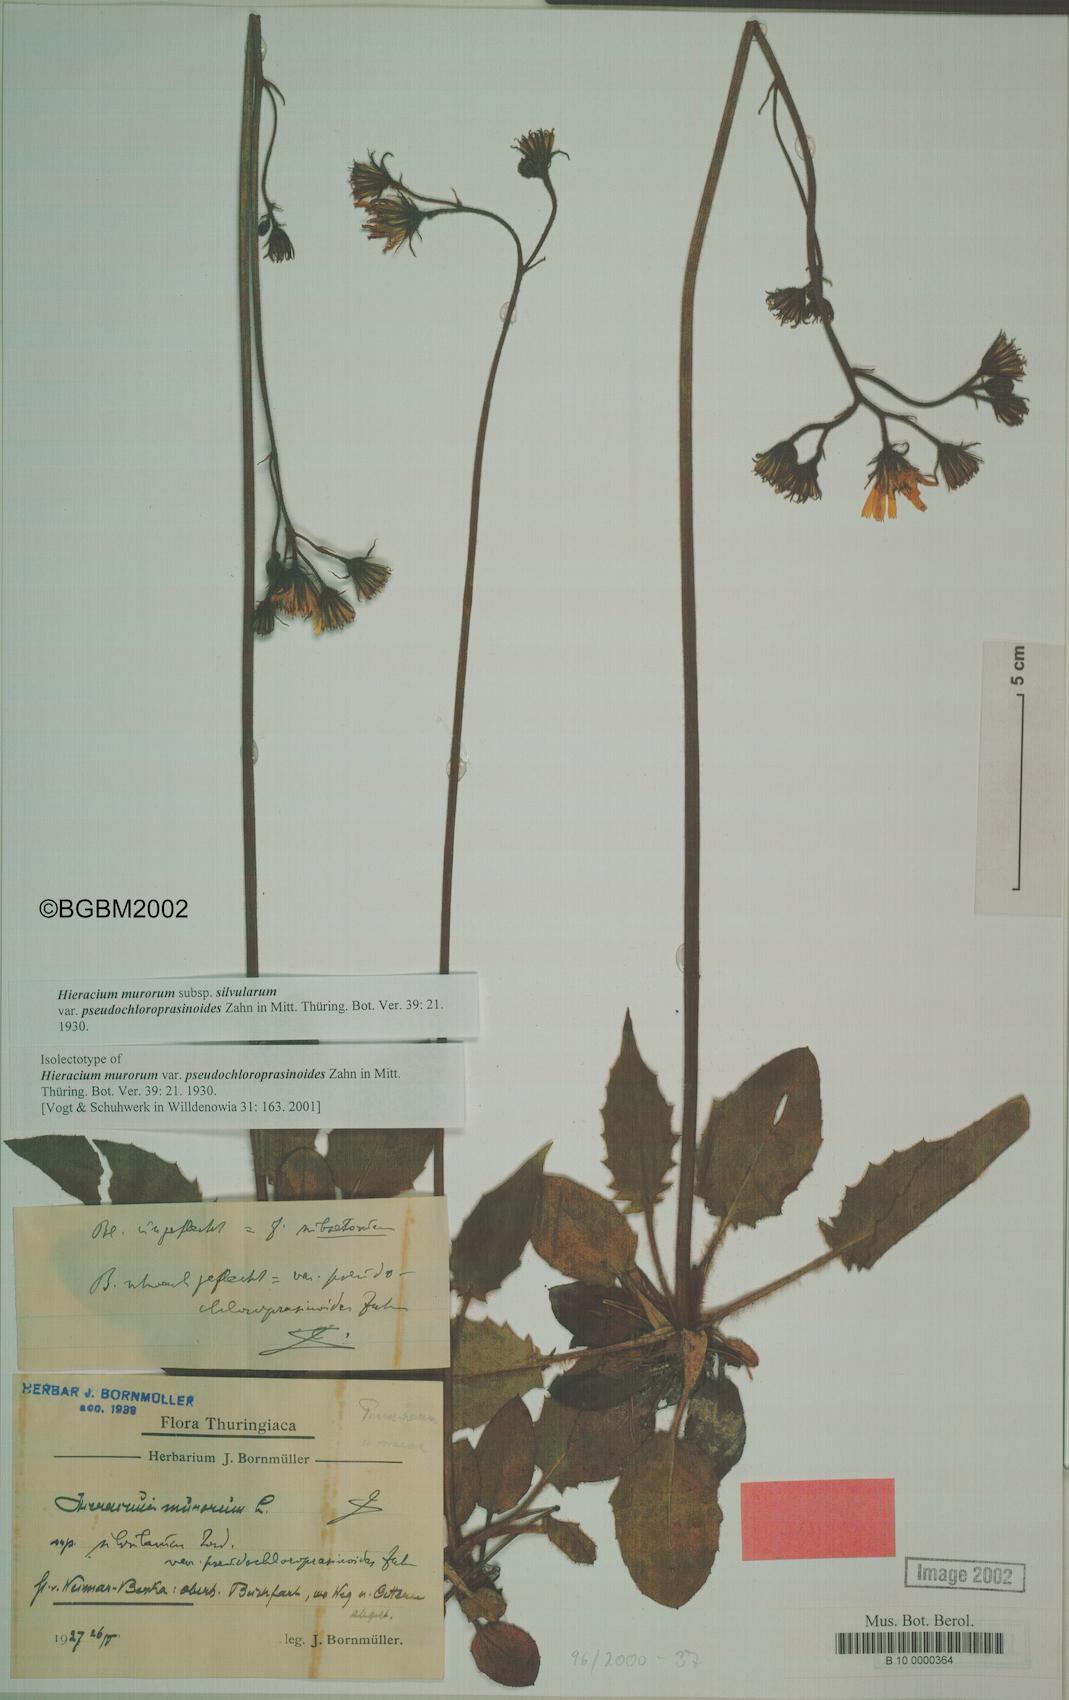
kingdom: Plantae
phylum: Tracheophyta
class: Magnoliopsida
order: Asterales
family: Asteraceae
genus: Hieracium
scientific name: Hieracium murorum
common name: Wall hawkweed
